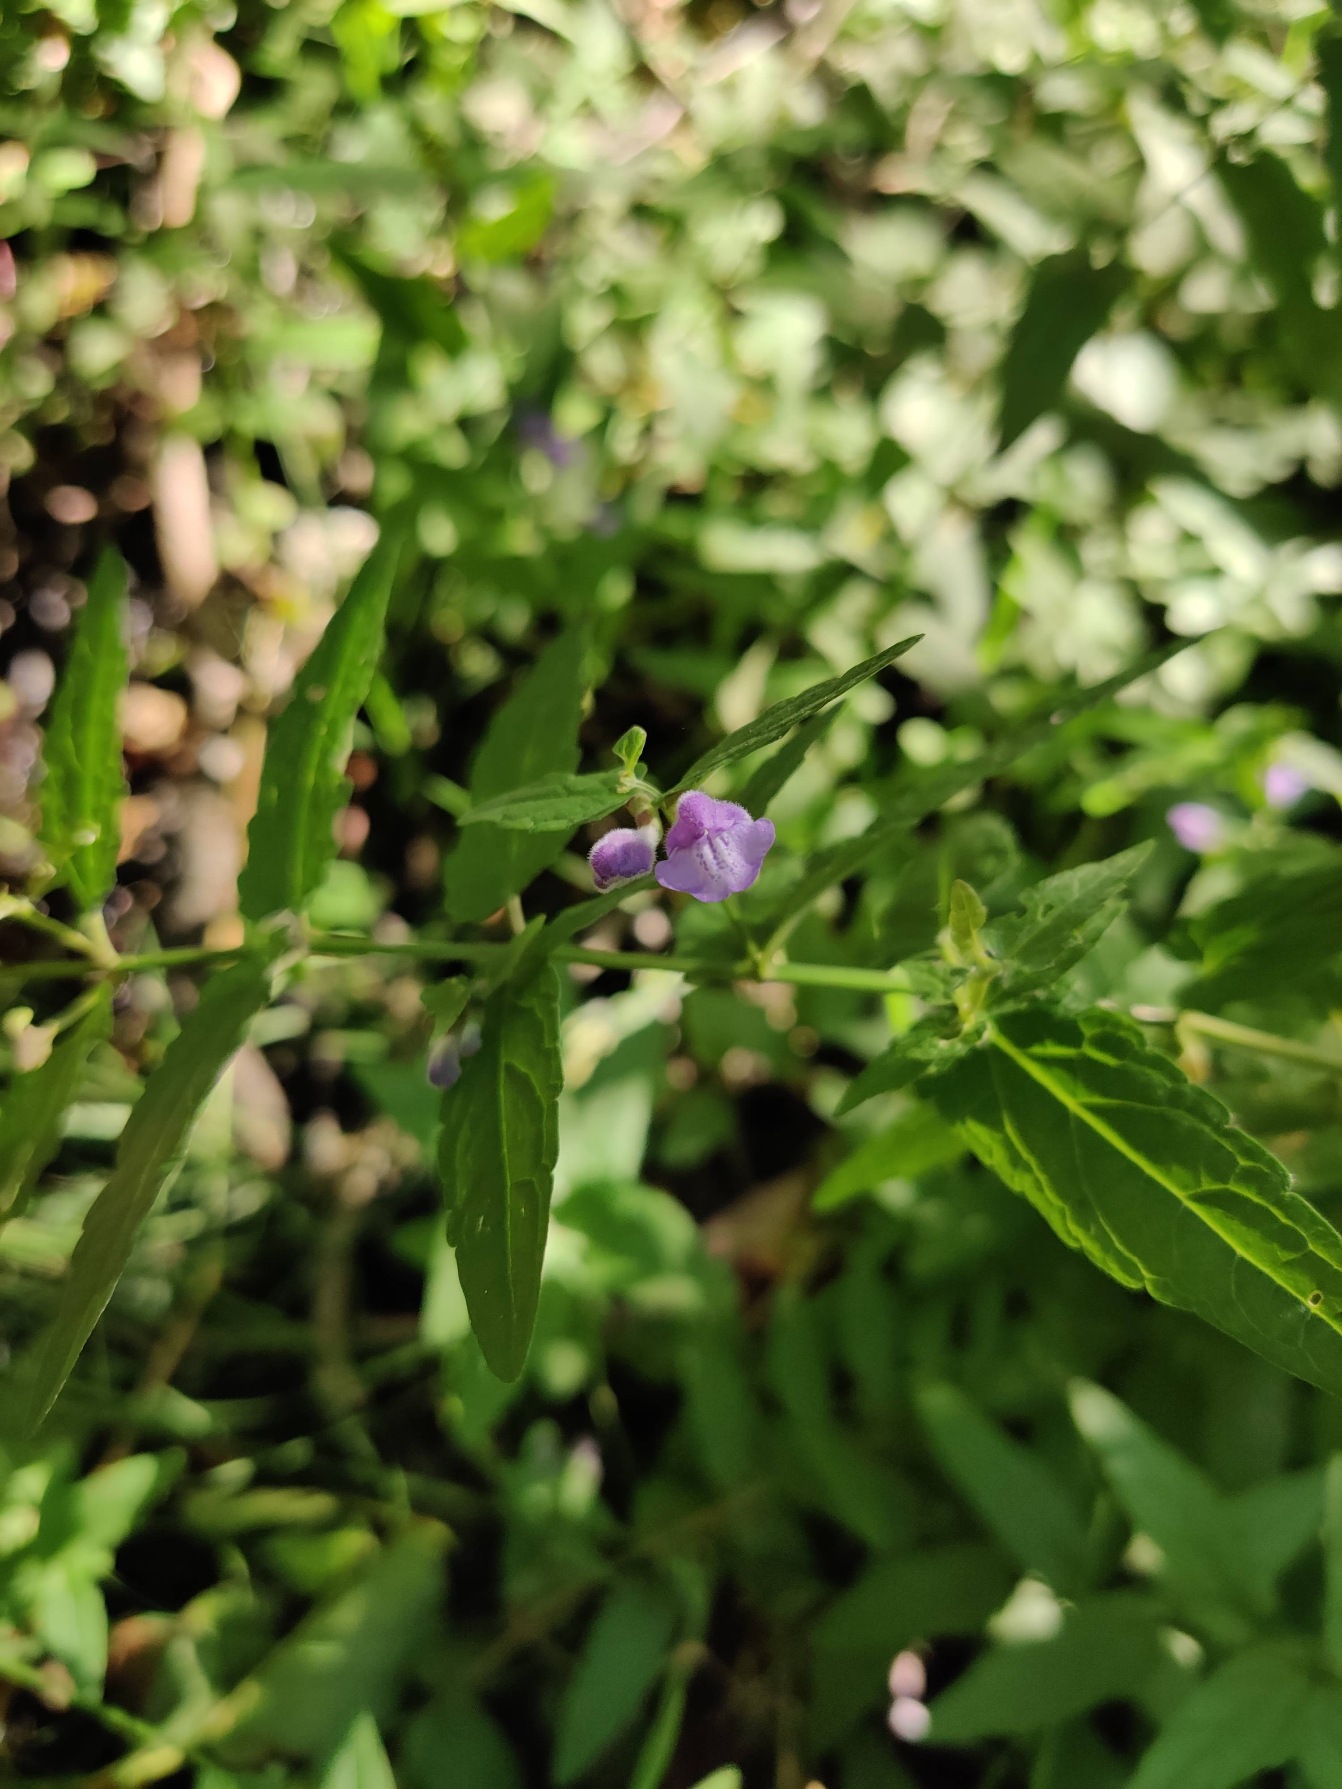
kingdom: Plantae
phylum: Tracheophyta
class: Magnoliopsida
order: Lamiales
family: Lamiaceae
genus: Scutellaria
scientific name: Scutellaria galericulata
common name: Almindelig skjolddrager
